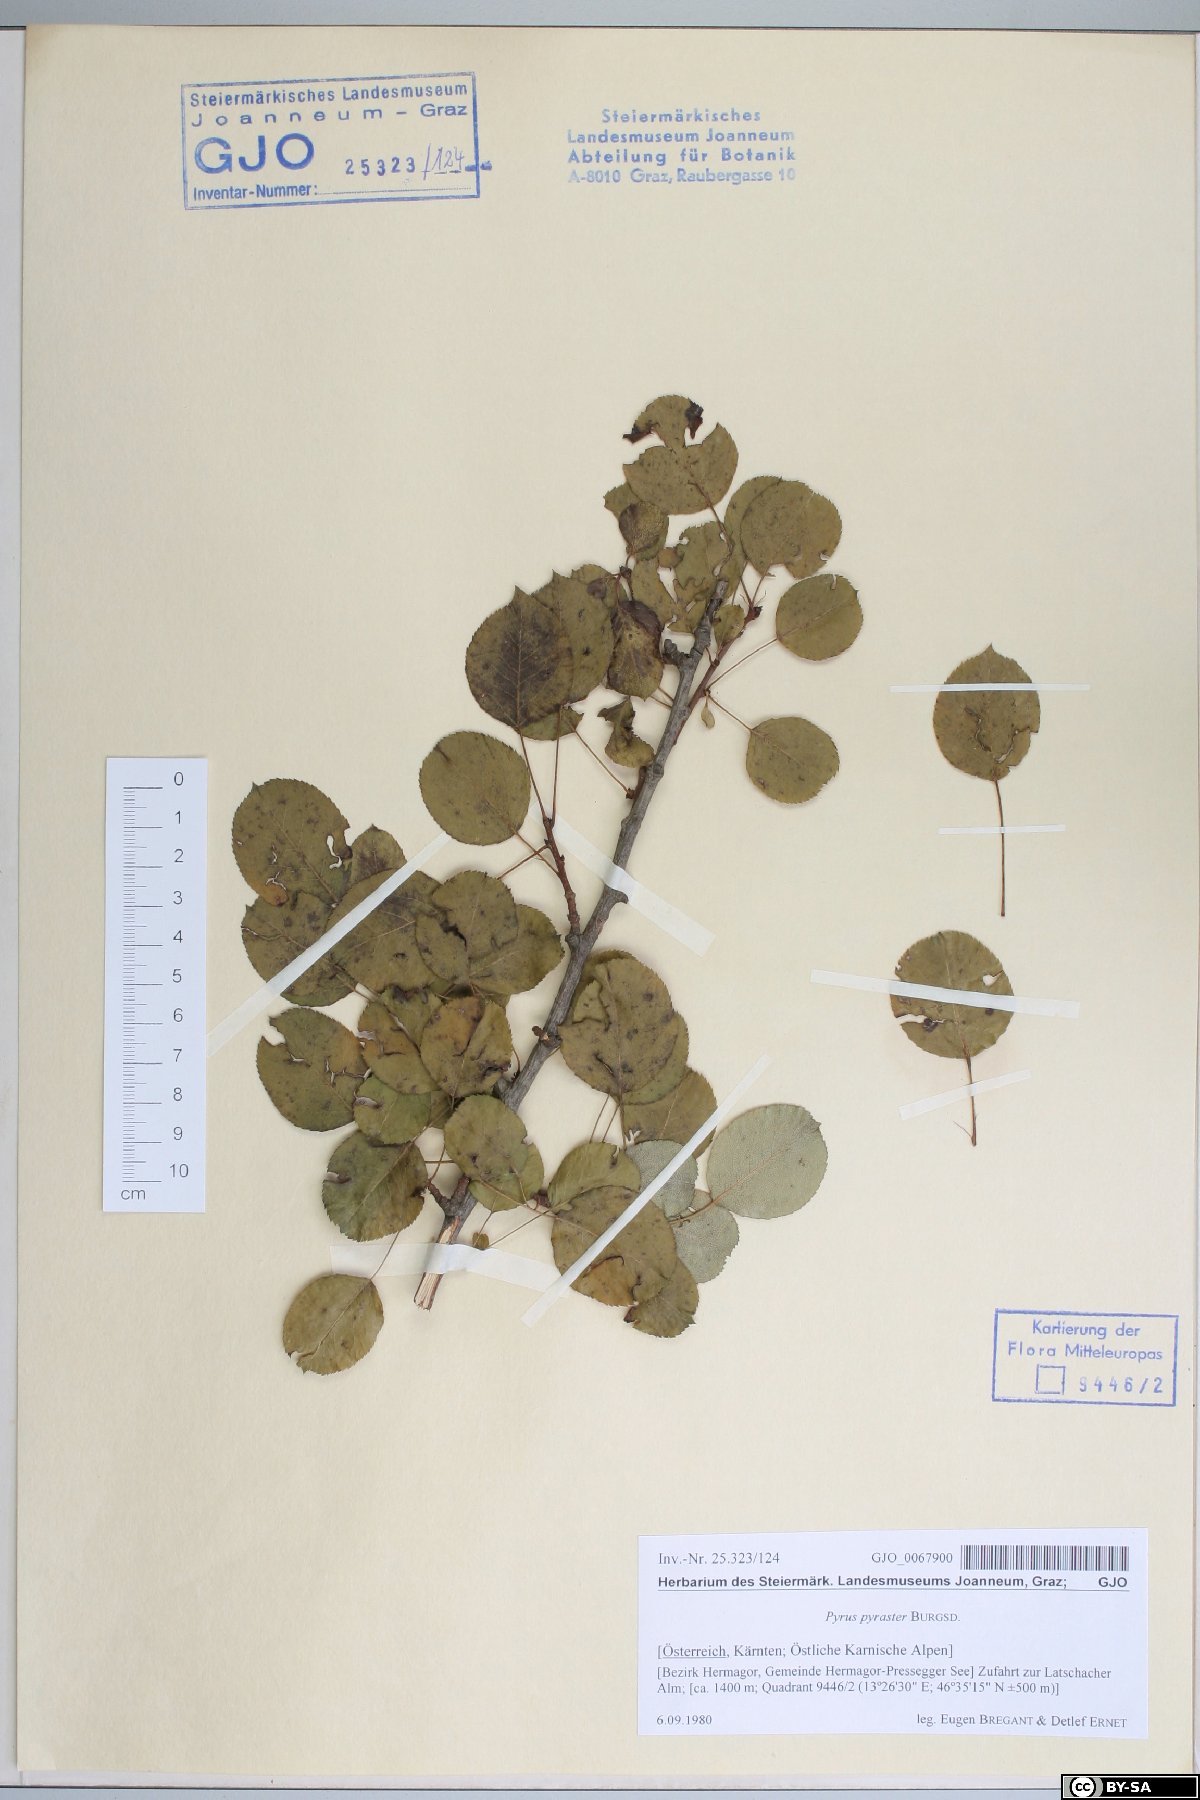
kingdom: Plantae
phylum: Tracheophyta
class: Magnoliopsida
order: Rosales
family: Rosaceae
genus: Pyrus
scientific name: Pyrus pyraster
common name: Wild pear
